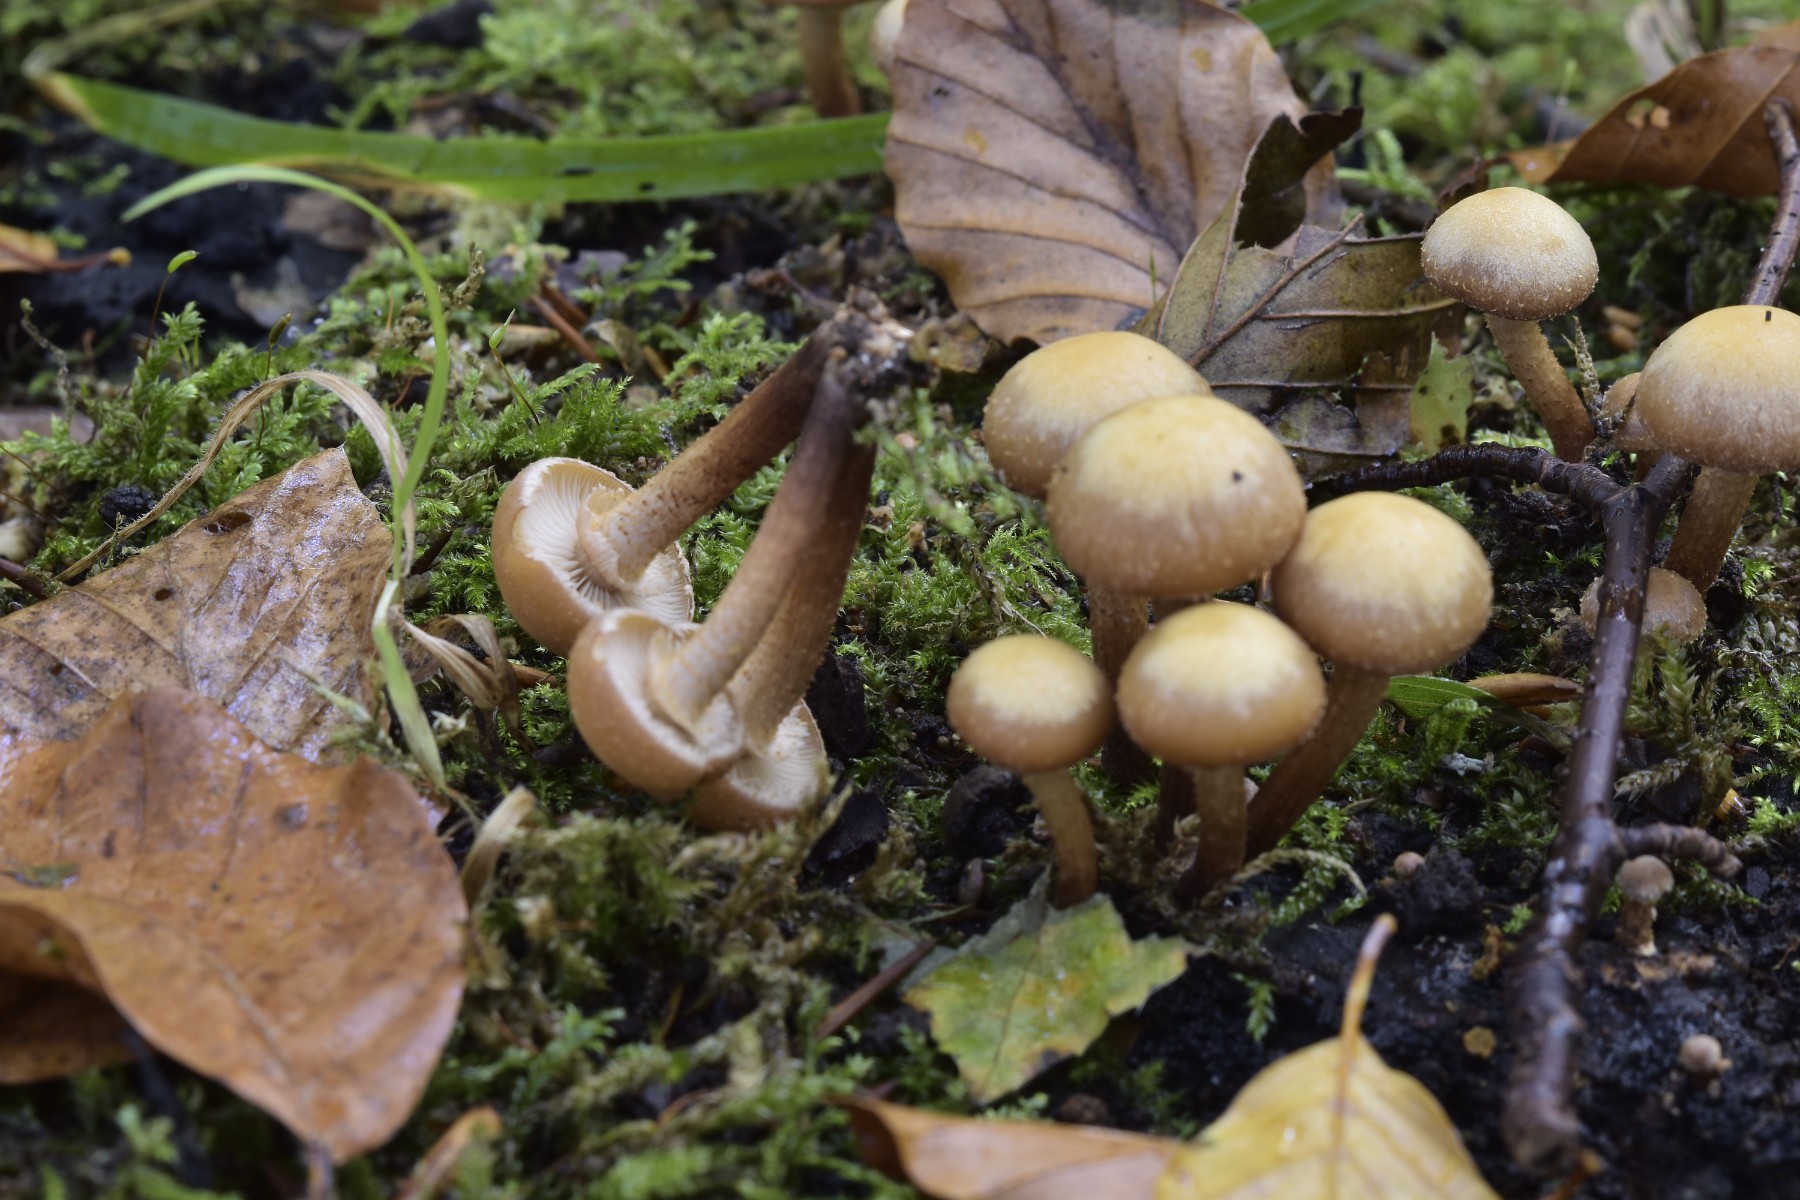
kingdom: Fungi
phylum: Basidiomycota
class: Agaricomycetes
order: Agaricales
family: Strophariaceae
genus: Kuehneromyces
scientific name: Kuehneromyces mutabilis
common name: foranderlig skælhat
